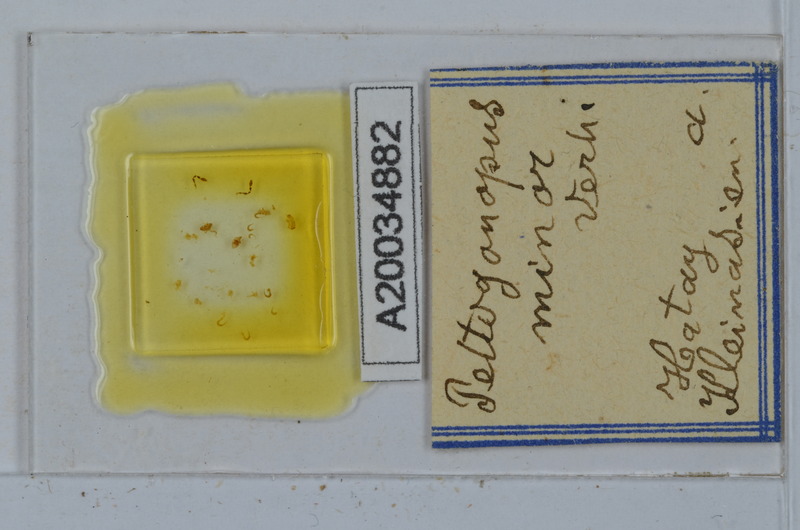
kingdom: Animalia
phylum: Arthropoda
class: Diplopoda
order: Polydesmida
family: Polydesmidae
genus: Peltogonopus
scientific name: Peltogonopus minor
